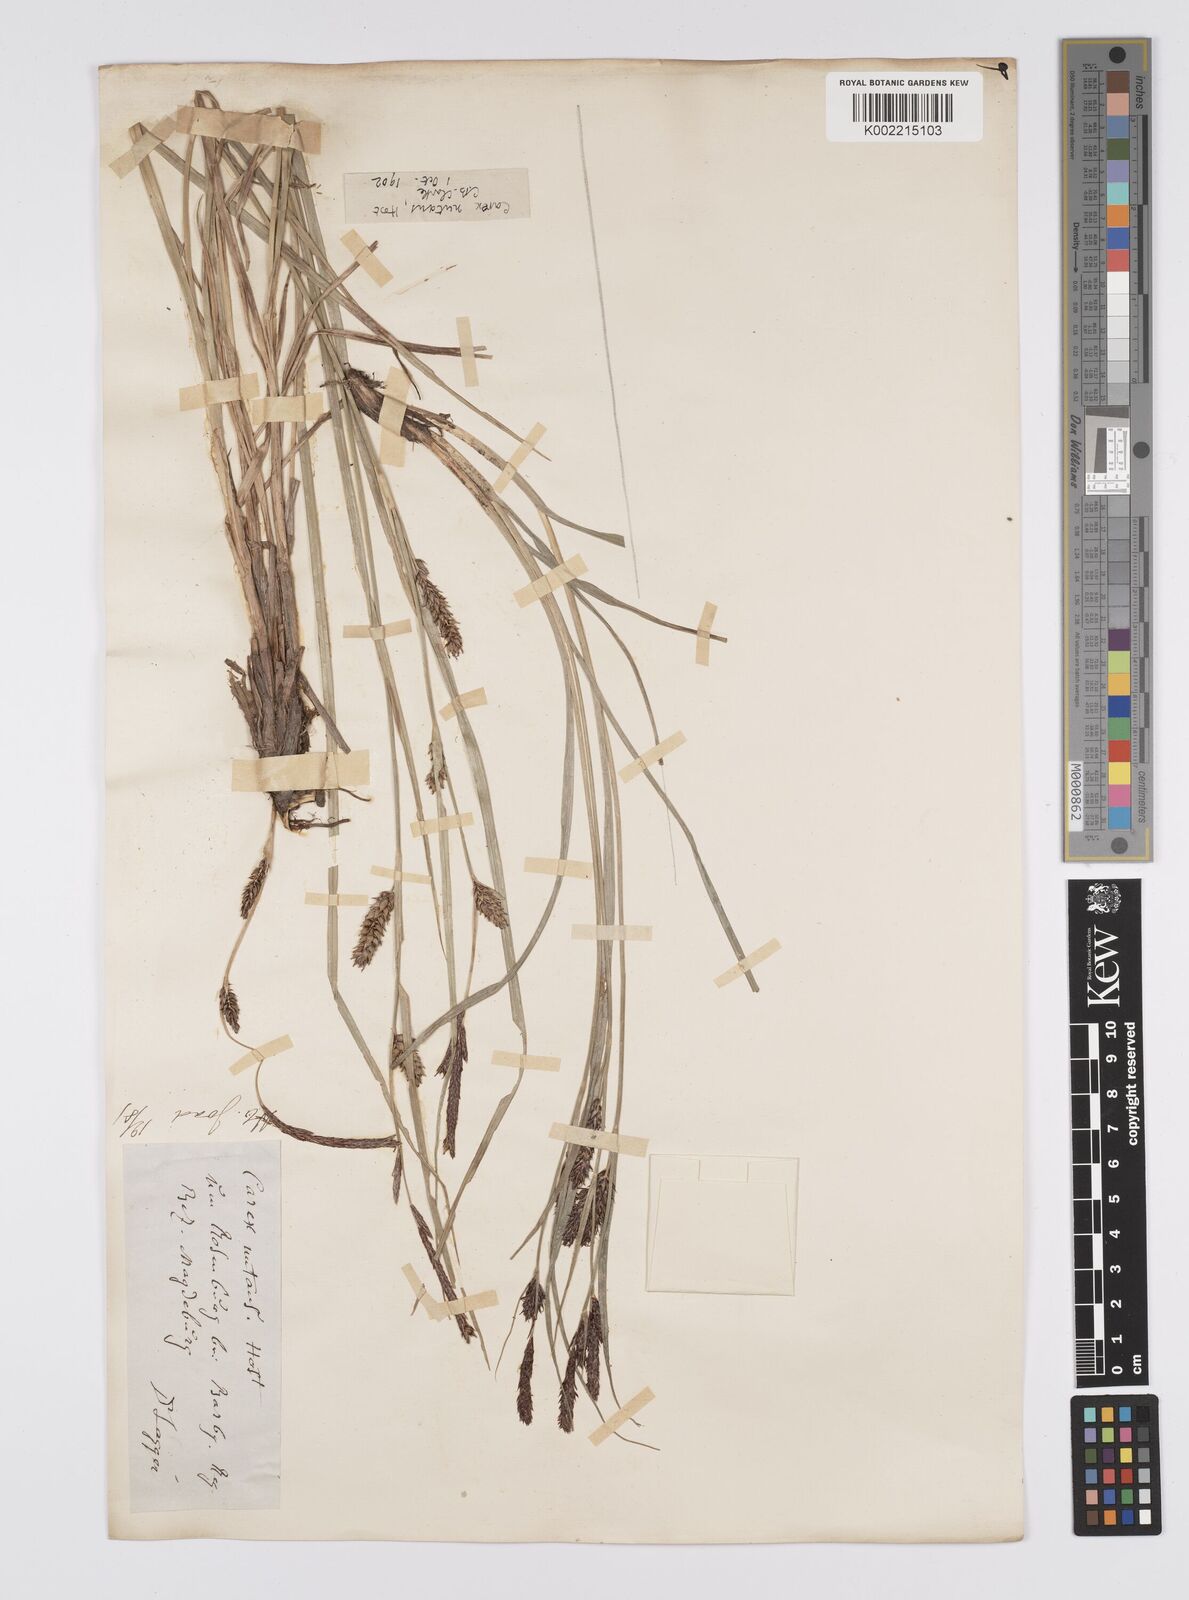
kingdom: Plantae
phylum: Tracheophyta
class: Liliopsida
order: Poales
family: Cyperaceae
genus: Carex
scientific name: Carex melanostachya
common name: Black-spiked sedge
